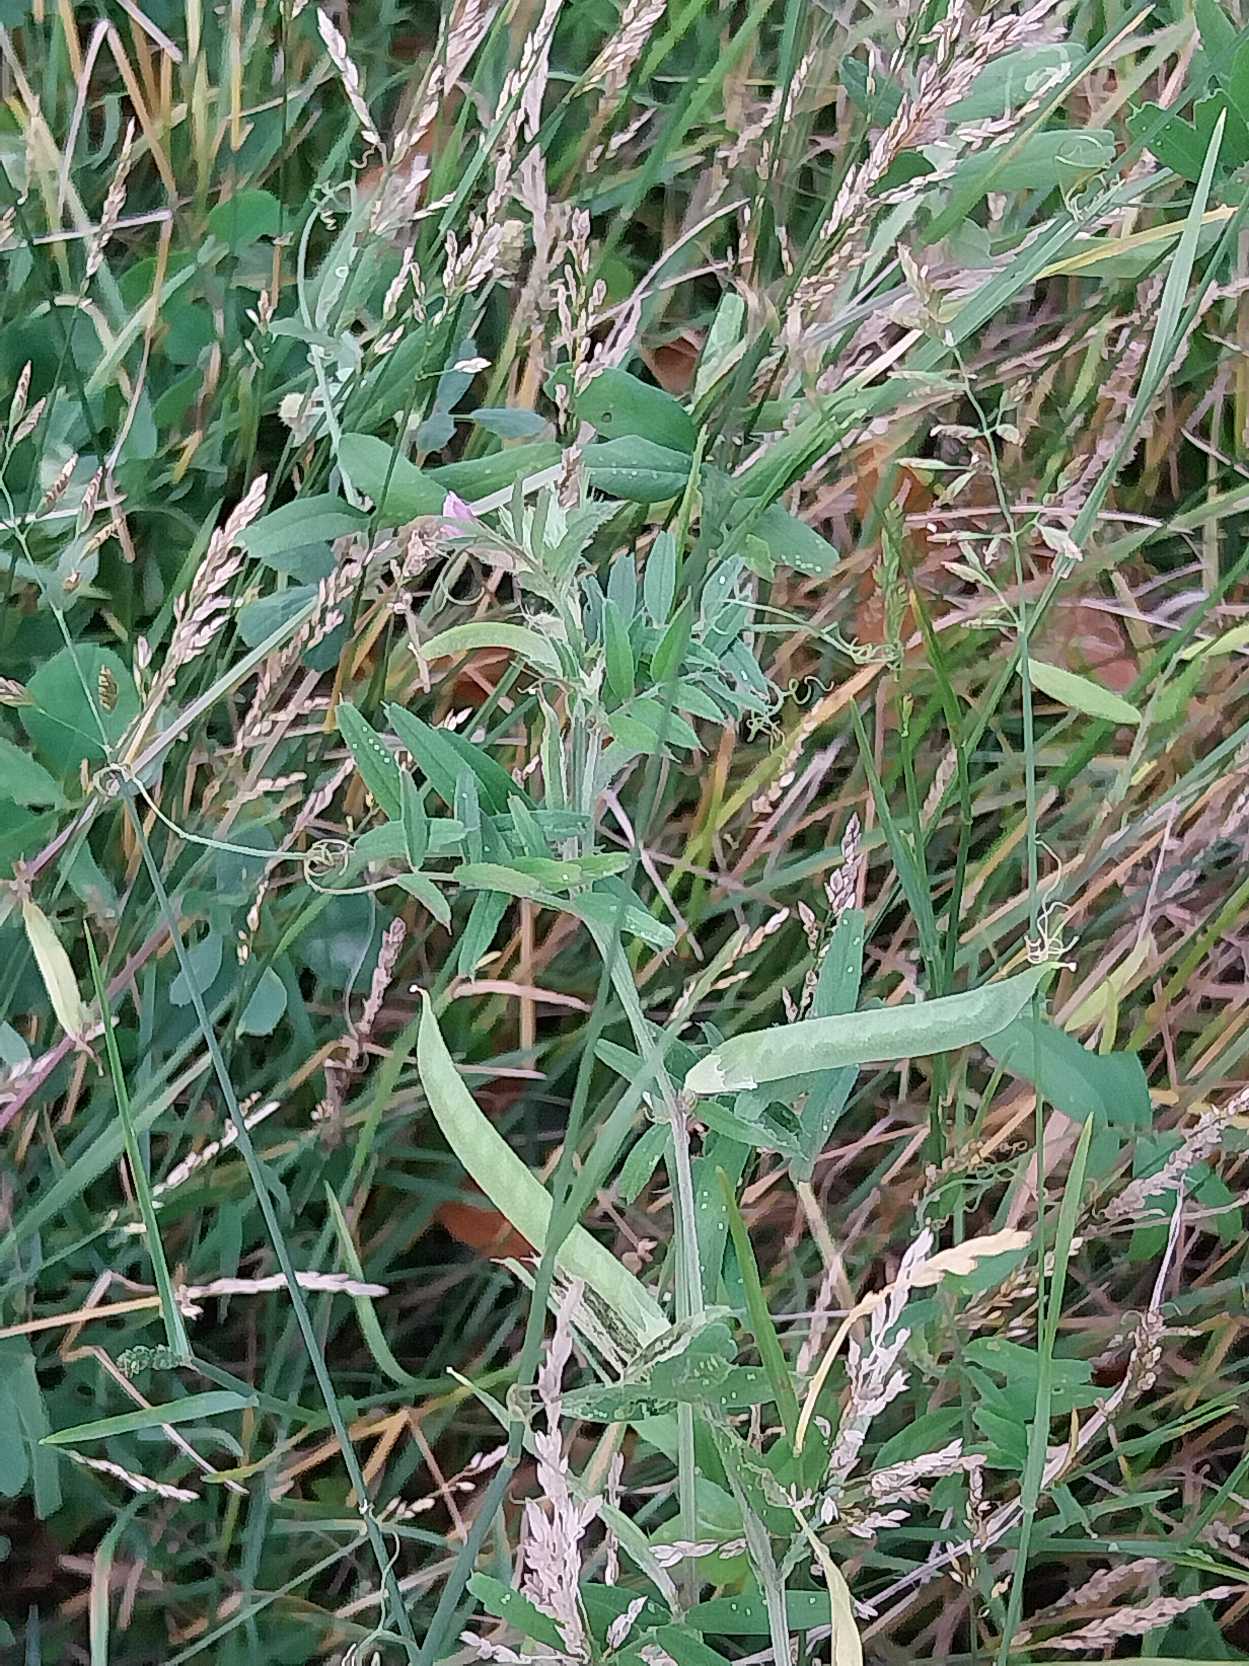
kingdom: Plantae
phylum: Tracheophyta
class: Magnoliopsida
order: Fabales
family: Fabaceae
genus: Vicia
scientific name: Vicia sativa
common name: Foder-vikke
